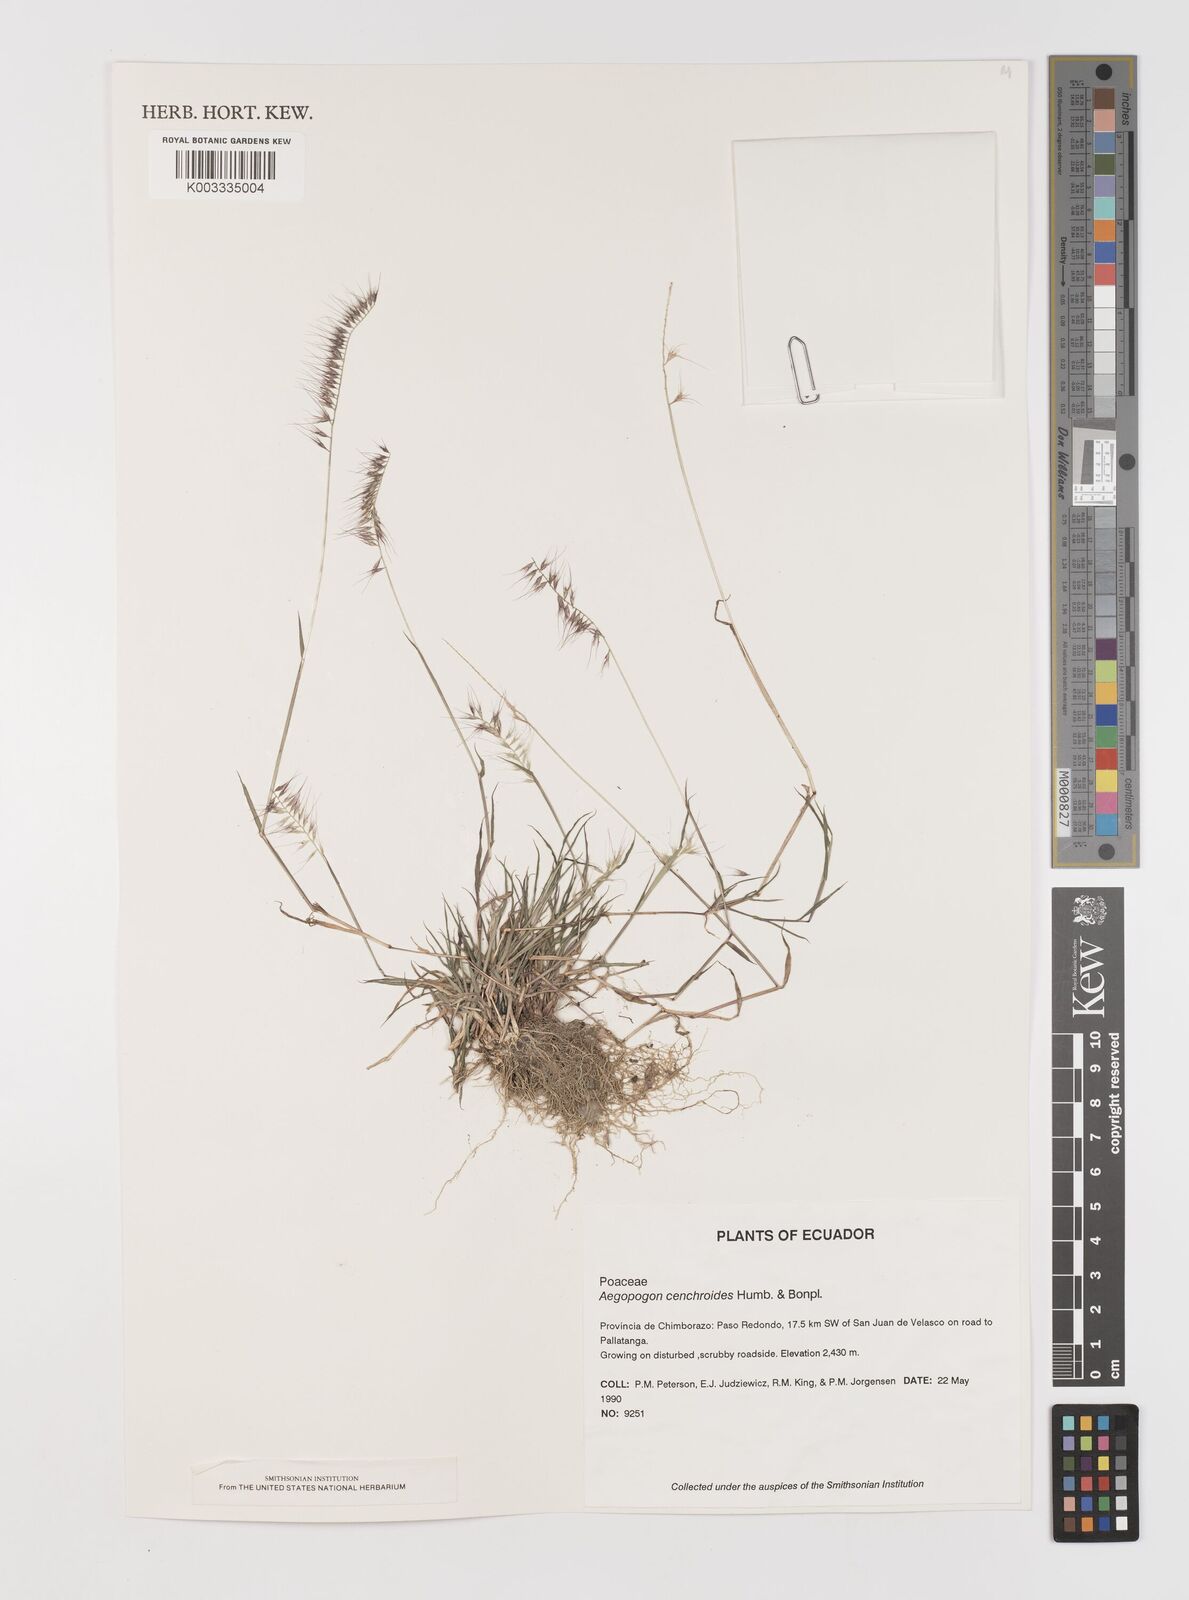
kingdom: Plantae
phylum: Tracheophyta
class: Liliopsida
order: Poales
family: Poaceae
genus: Muhlenbergia
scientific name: Muhlenbergia cenchroides
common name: Relaxgrass
